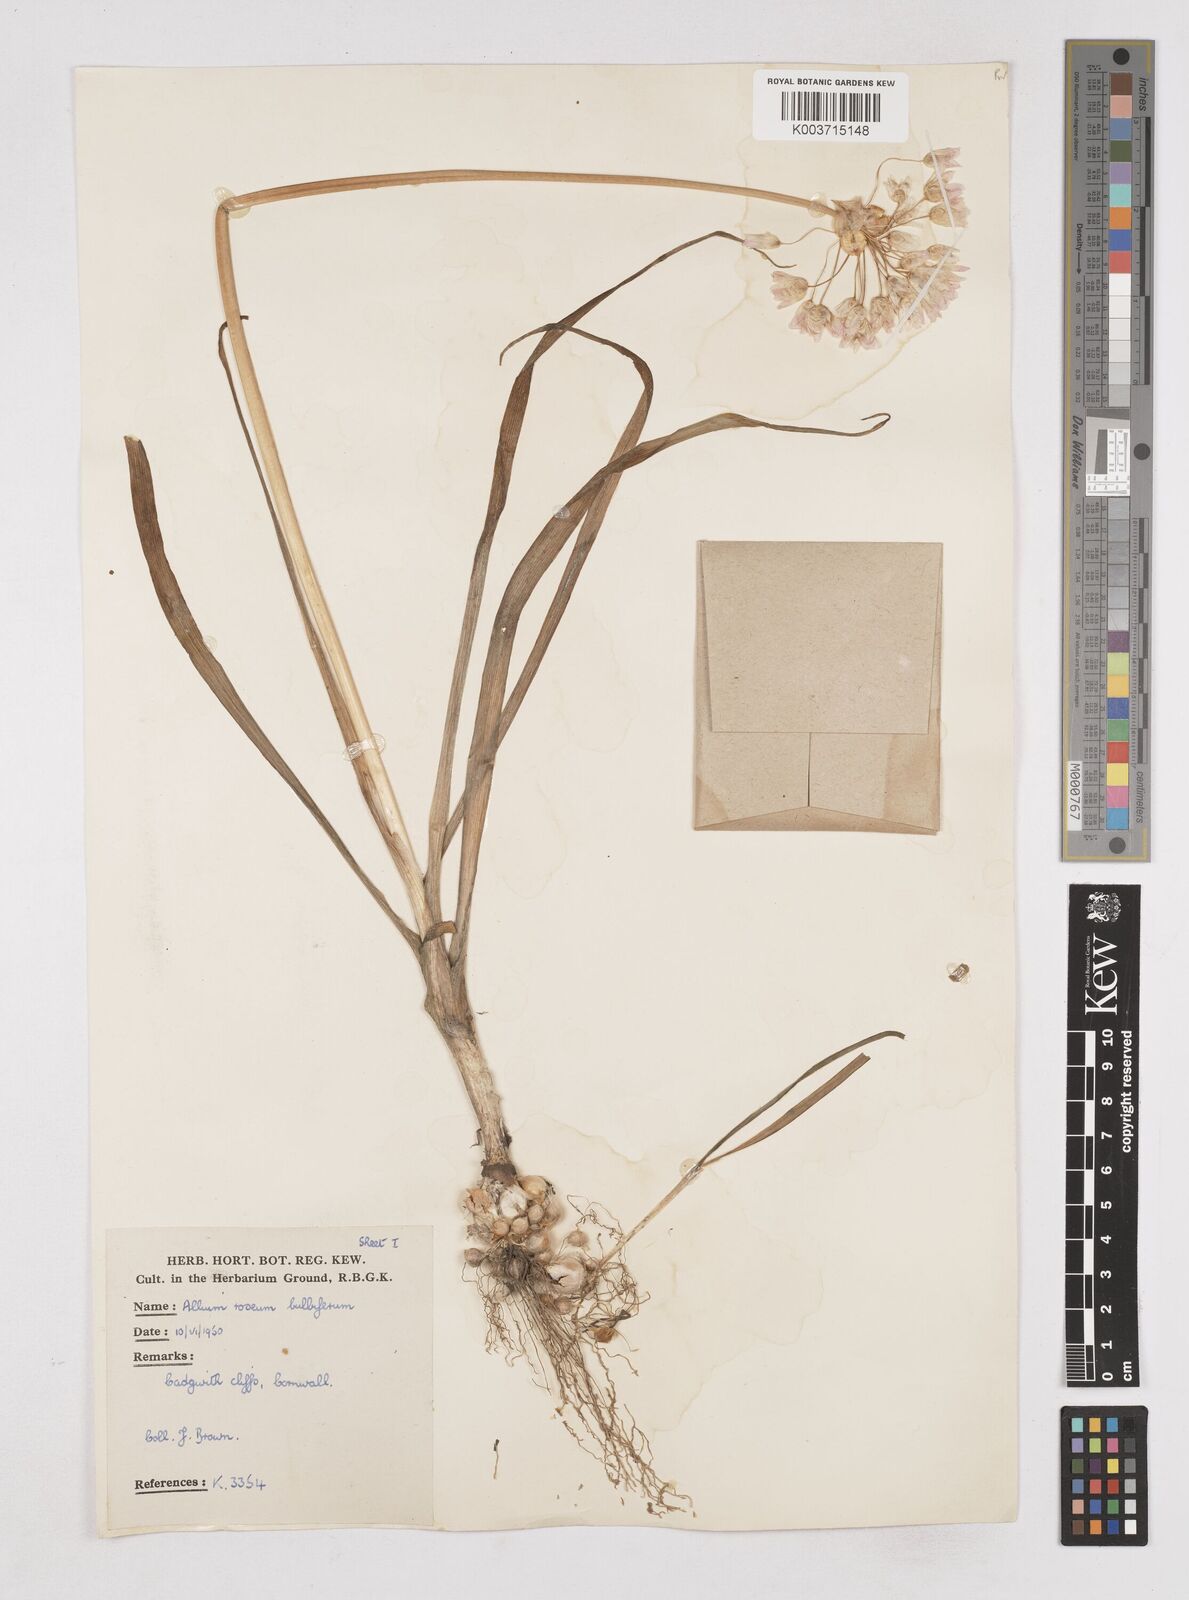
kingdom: Plantae
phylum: Tracheophyta
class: Liliopsida
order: Asparagales
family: Amaryllidaceae
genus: Allium
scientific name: Allium roseum
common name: Rosy garlic
